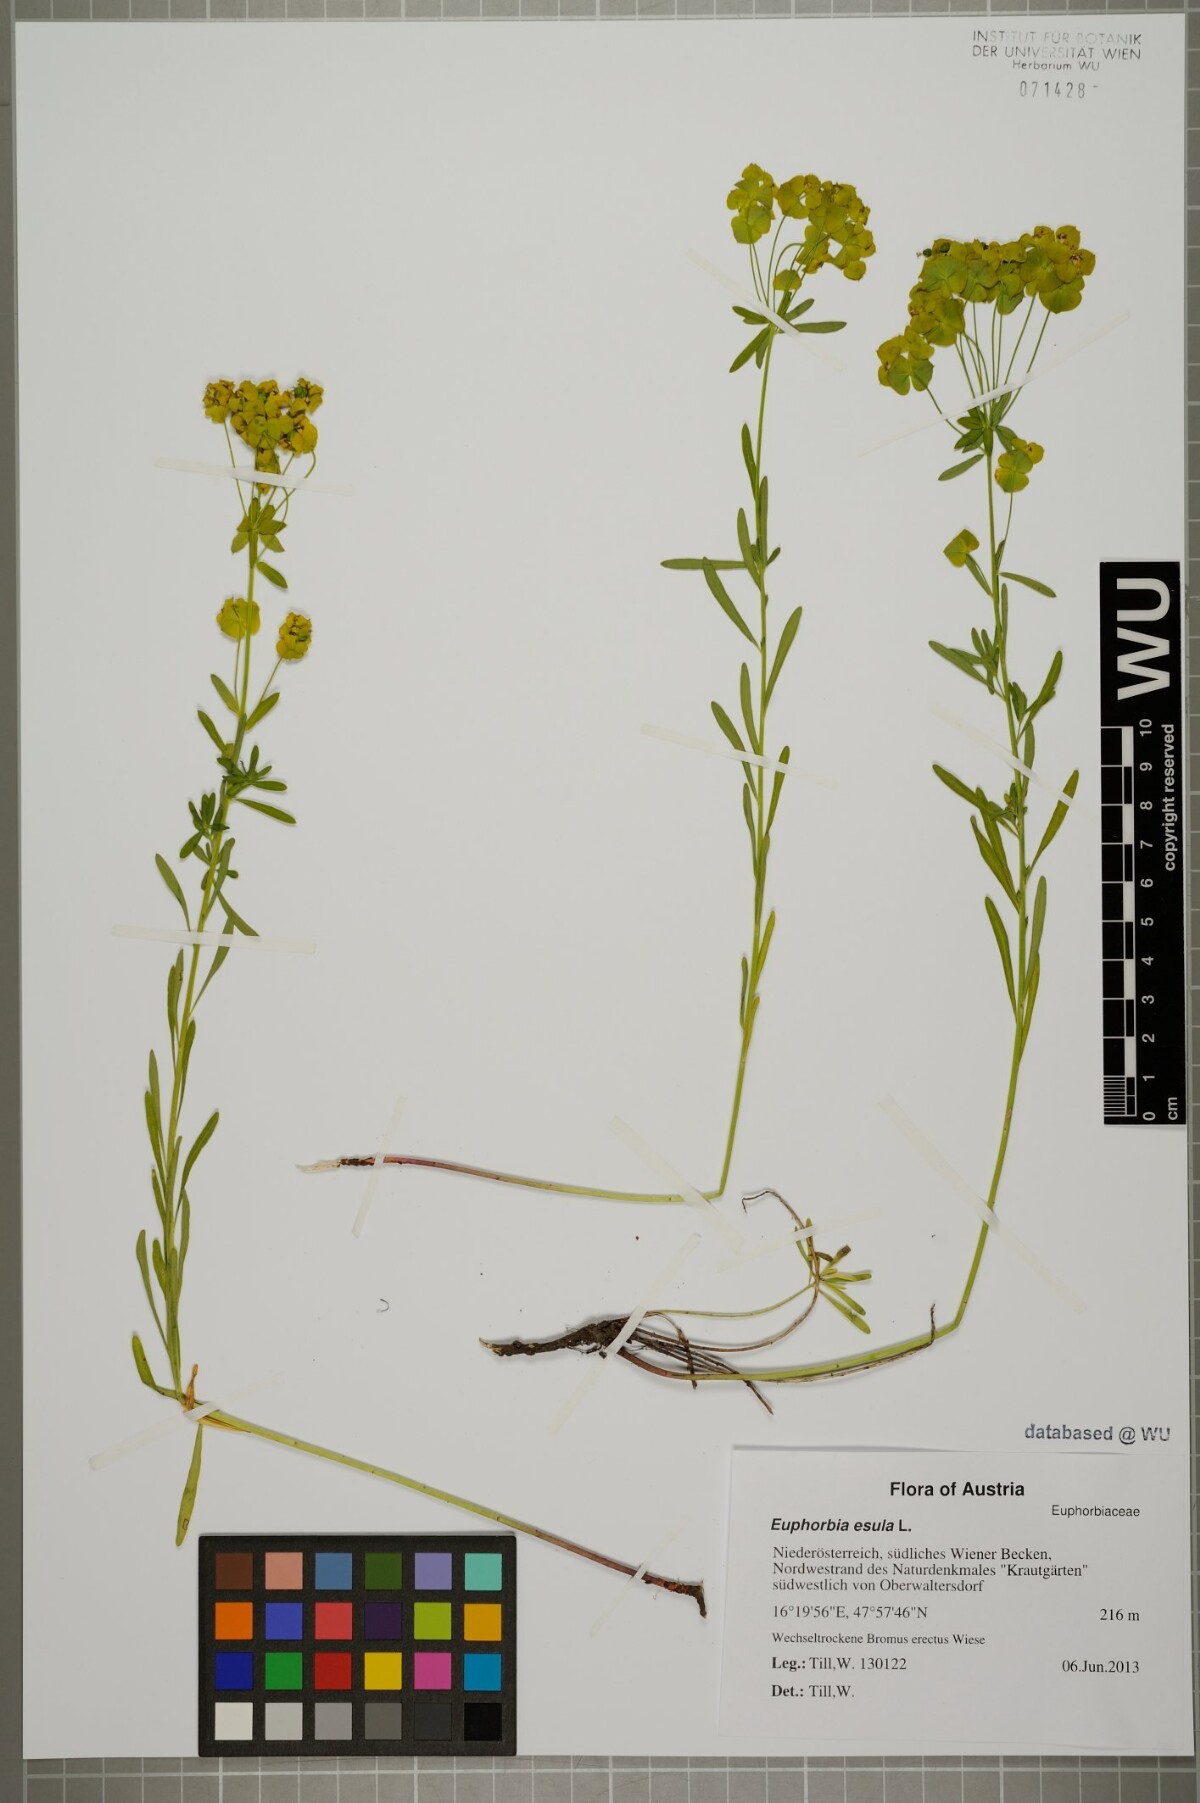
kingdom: Plantae
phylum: Tracheophyta
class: Magnoliopsida
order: Malpighiales
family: Euphorbiaceae
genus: Euphorbia
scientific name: Euphorbia esula
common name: Leafy spurge
